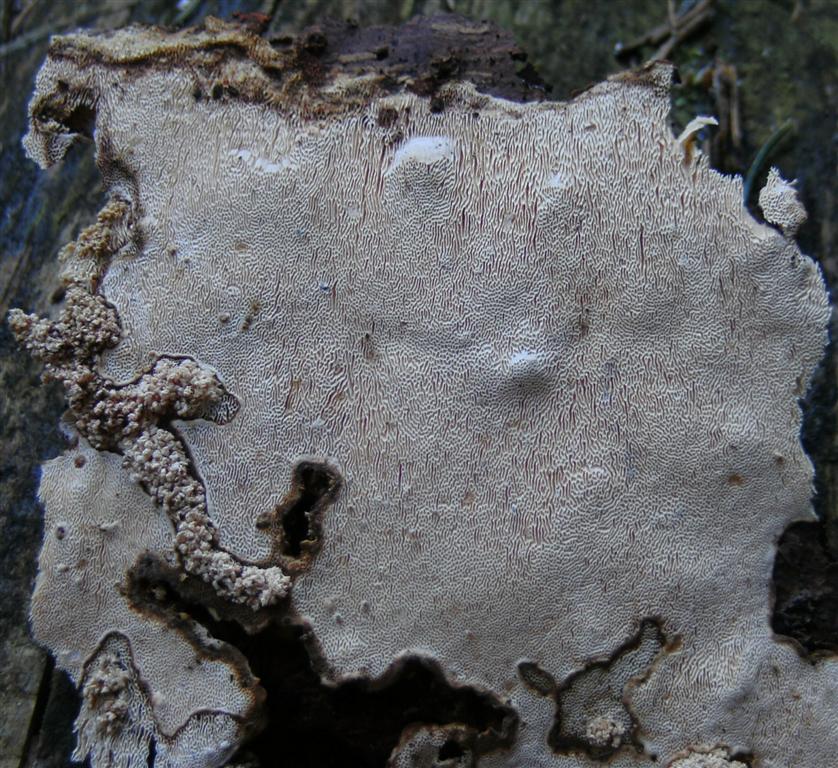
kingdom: Fungi
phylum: Basidiomycota
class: Agaricomycetes
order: Russulales
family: Bondarzewiaceae
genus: Heterobasidion
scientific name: Heterobasidion parviporum
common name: småporet rodfordærver
